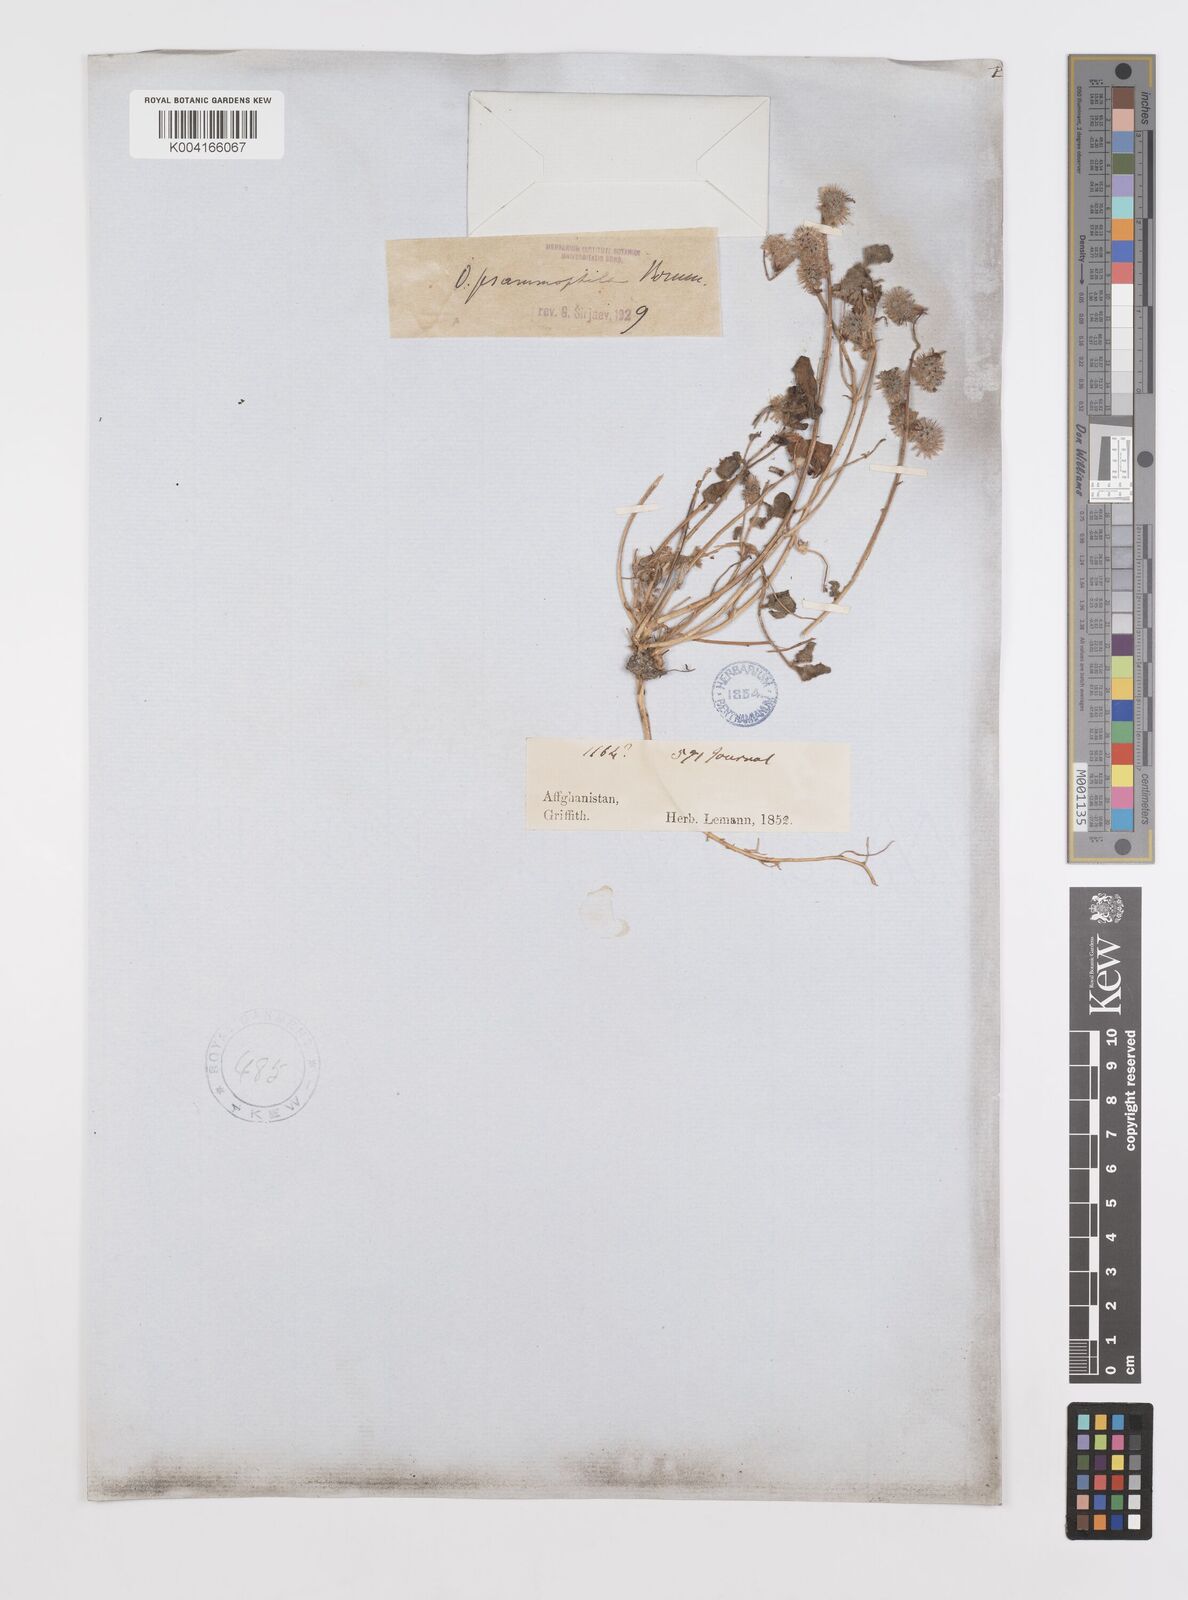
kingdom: Plantae
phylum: Tracheophyta
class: Magnoliopsida
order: Fabales
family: Fabaceae
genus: Onobrychis
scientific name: Onobrychis aucheri
